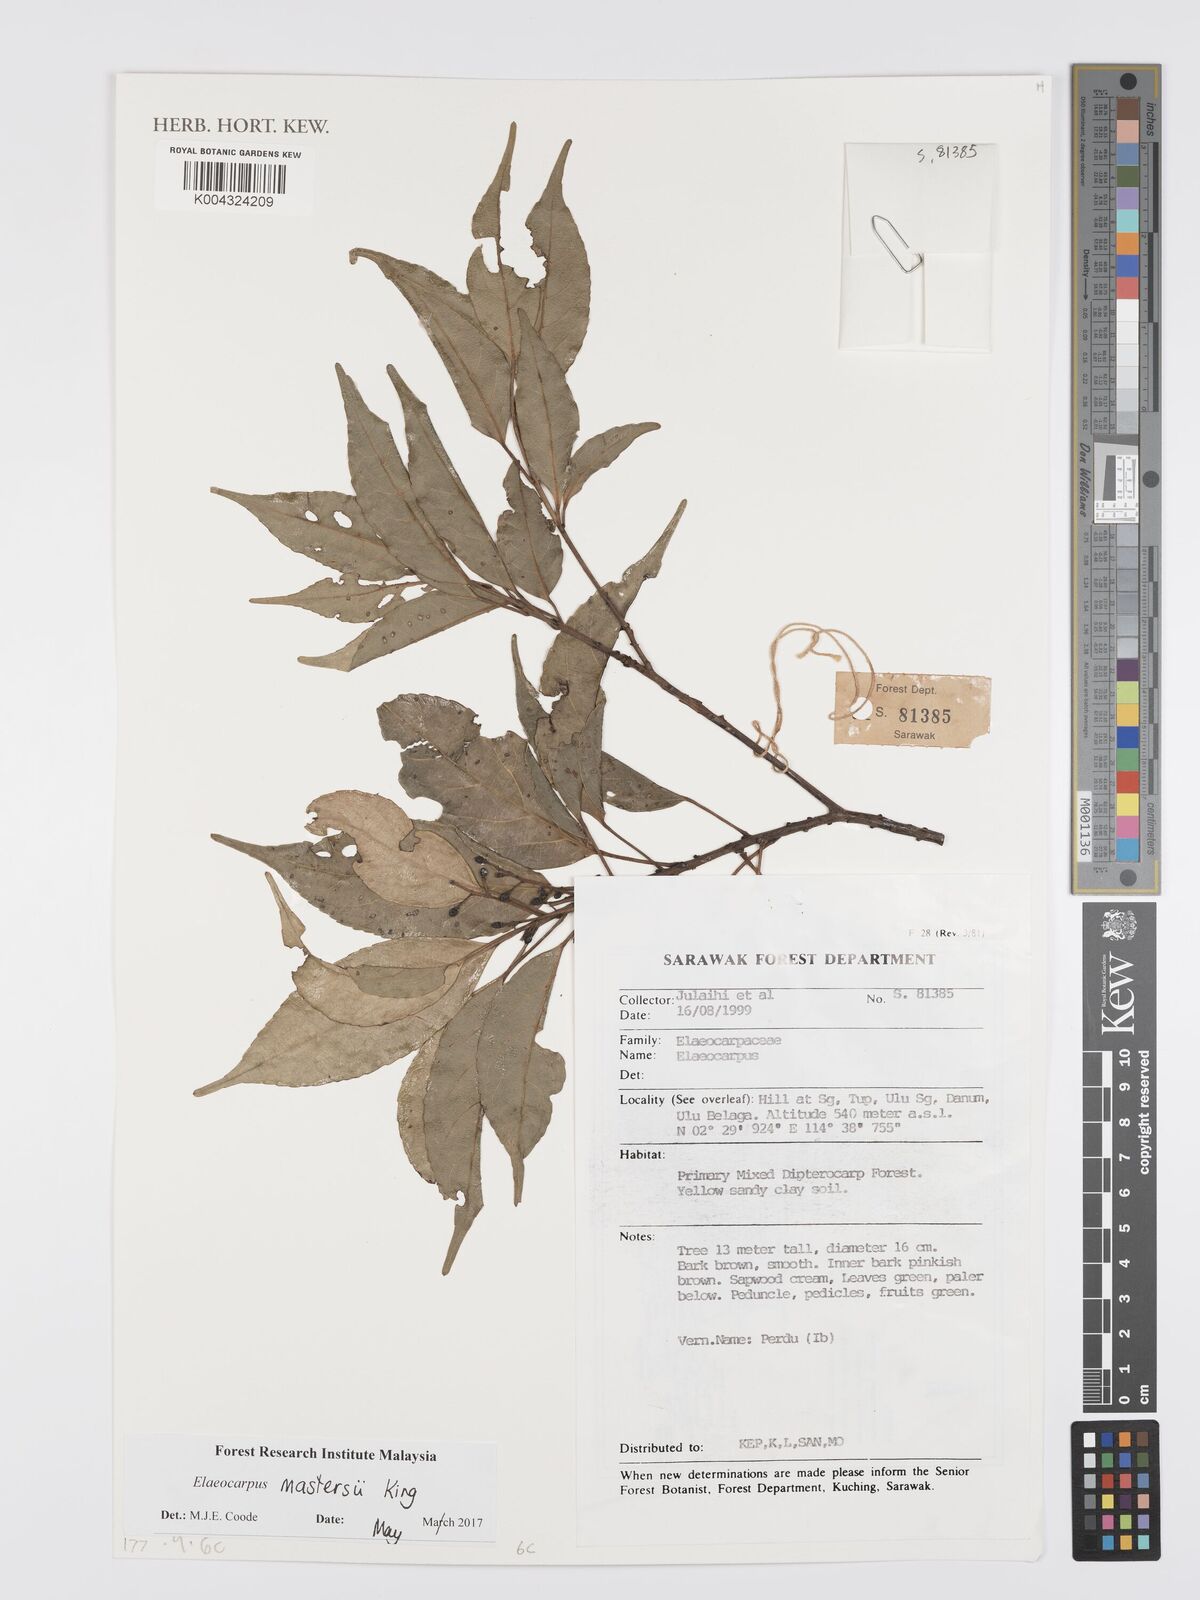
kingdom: Plantae
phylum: Tracheophyta
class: Magnoliopsida
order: Oxalidales
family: Elaeocarpaceae
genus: Elaeocarpus
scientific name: Elaeocarpus mastersii
